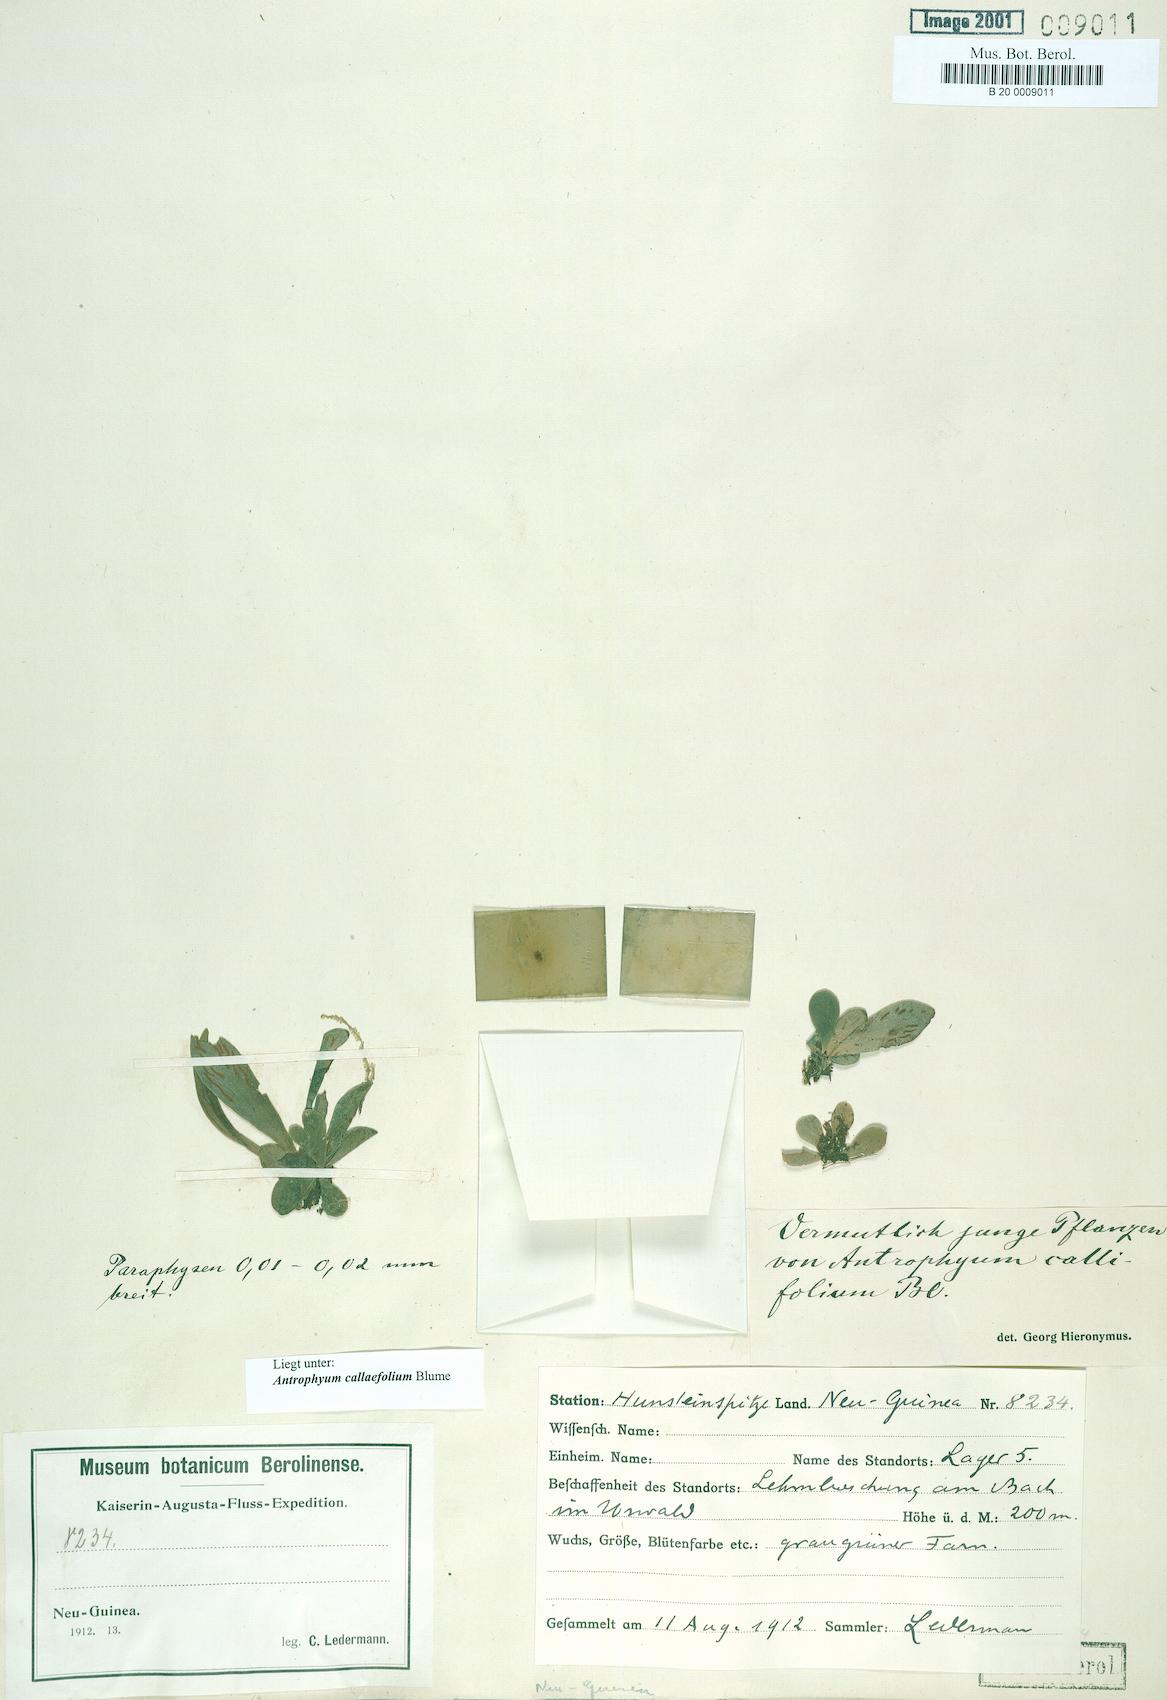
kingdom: Plantae
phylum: Tracheophyta
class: Polypodiopsida
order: Polypodiales
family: Pteridaceae
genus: Antrophyum
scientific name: Antrophyum callifolium
